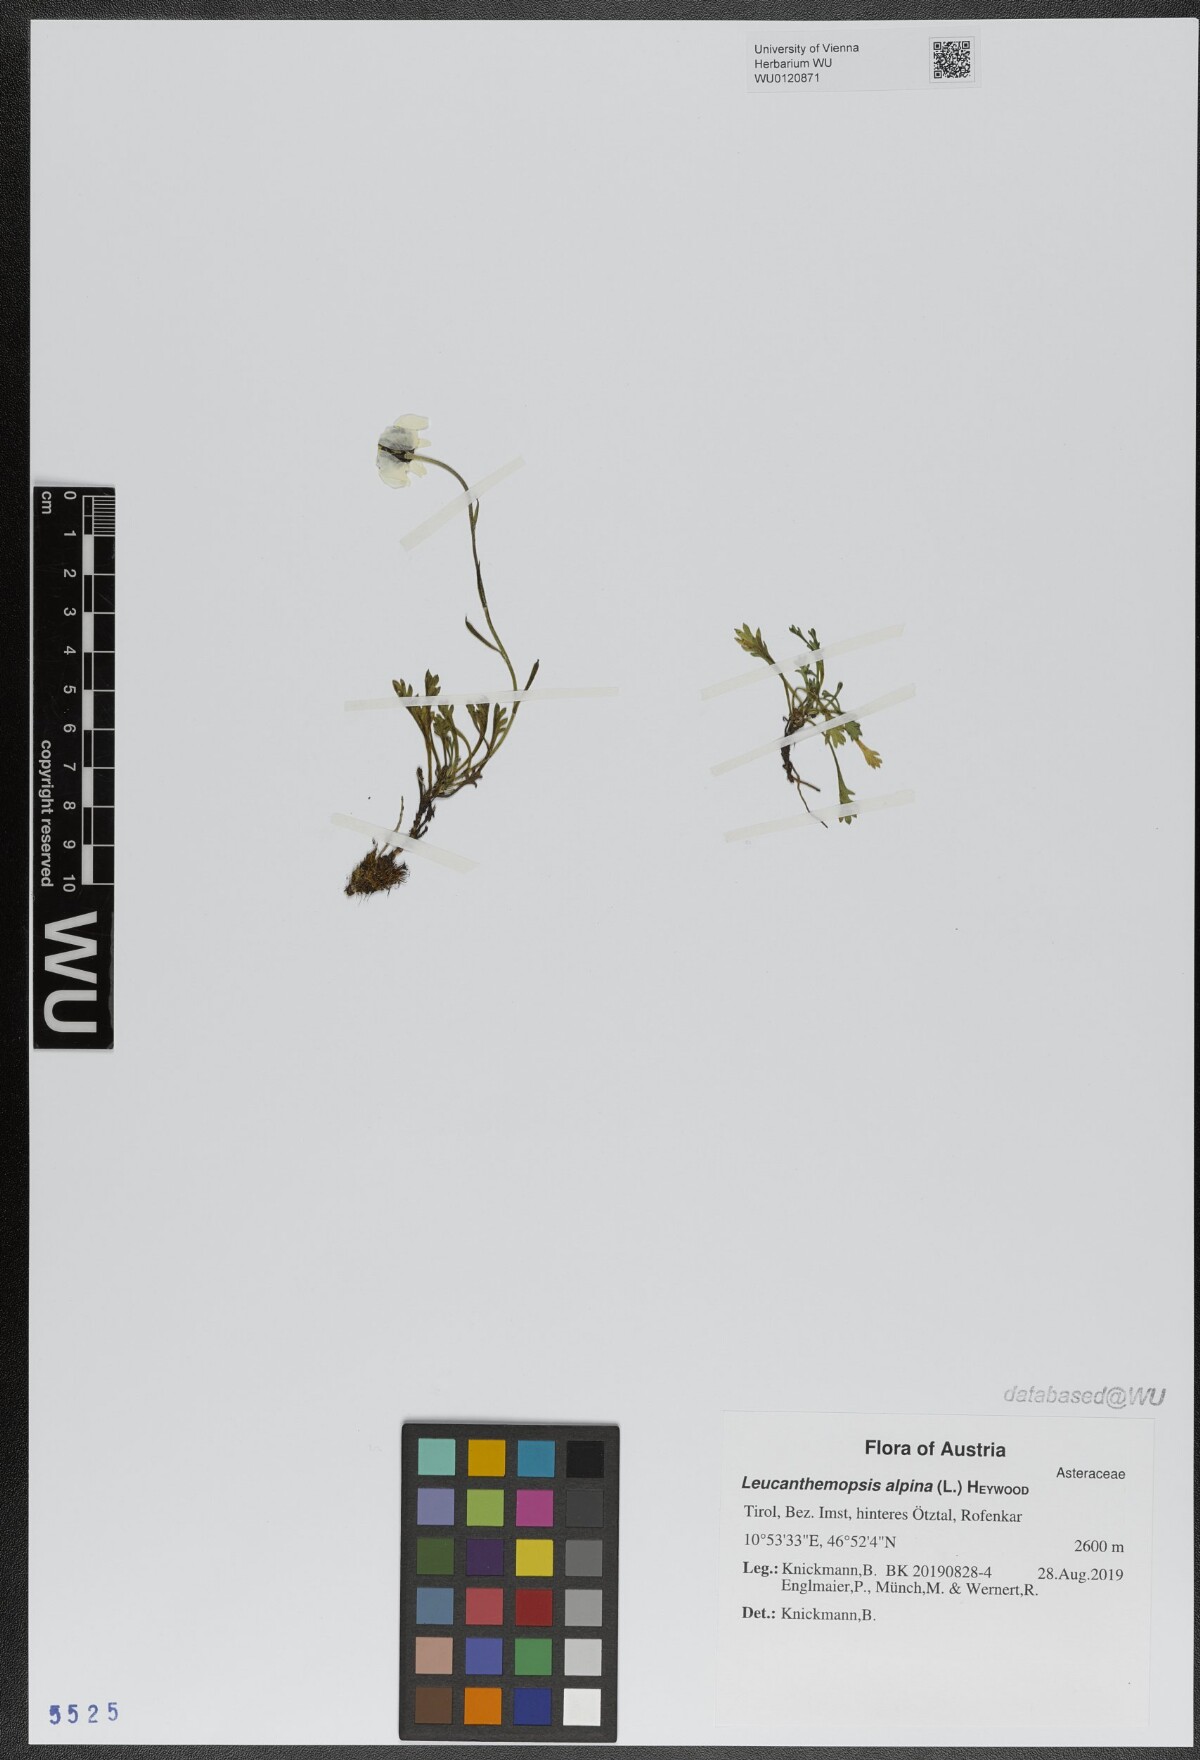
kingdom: Plantae
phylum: Tracheophyta
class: Magnoliopsida
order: Asterales
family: Asteraceae
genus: Leucanthemopsis
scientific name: Leucanthemopsis alpina
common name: Alpine moon daisy
